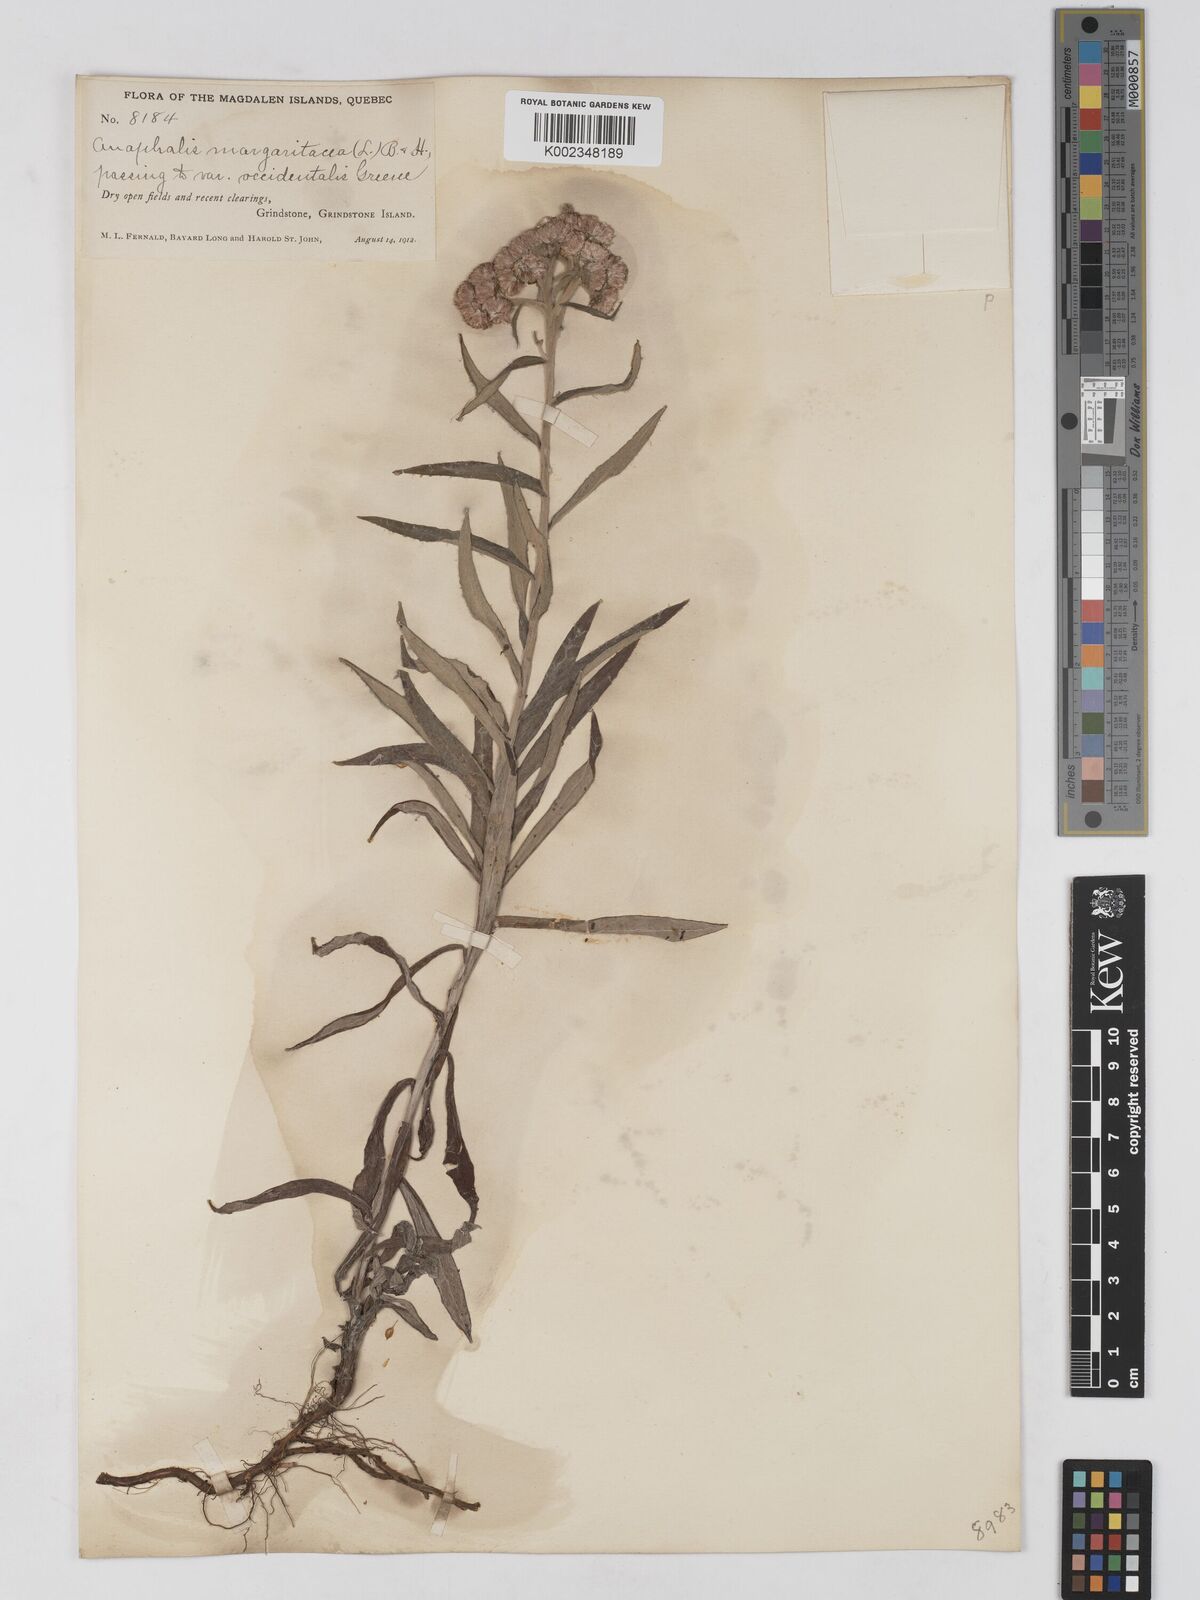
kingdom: Plantae
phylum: Tracheophyta
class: Magnoliopsida
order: Asterales
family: Asteraceae
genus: Anaphalis
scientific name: Anaphalis margaritacea
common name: Pearly everlasting
